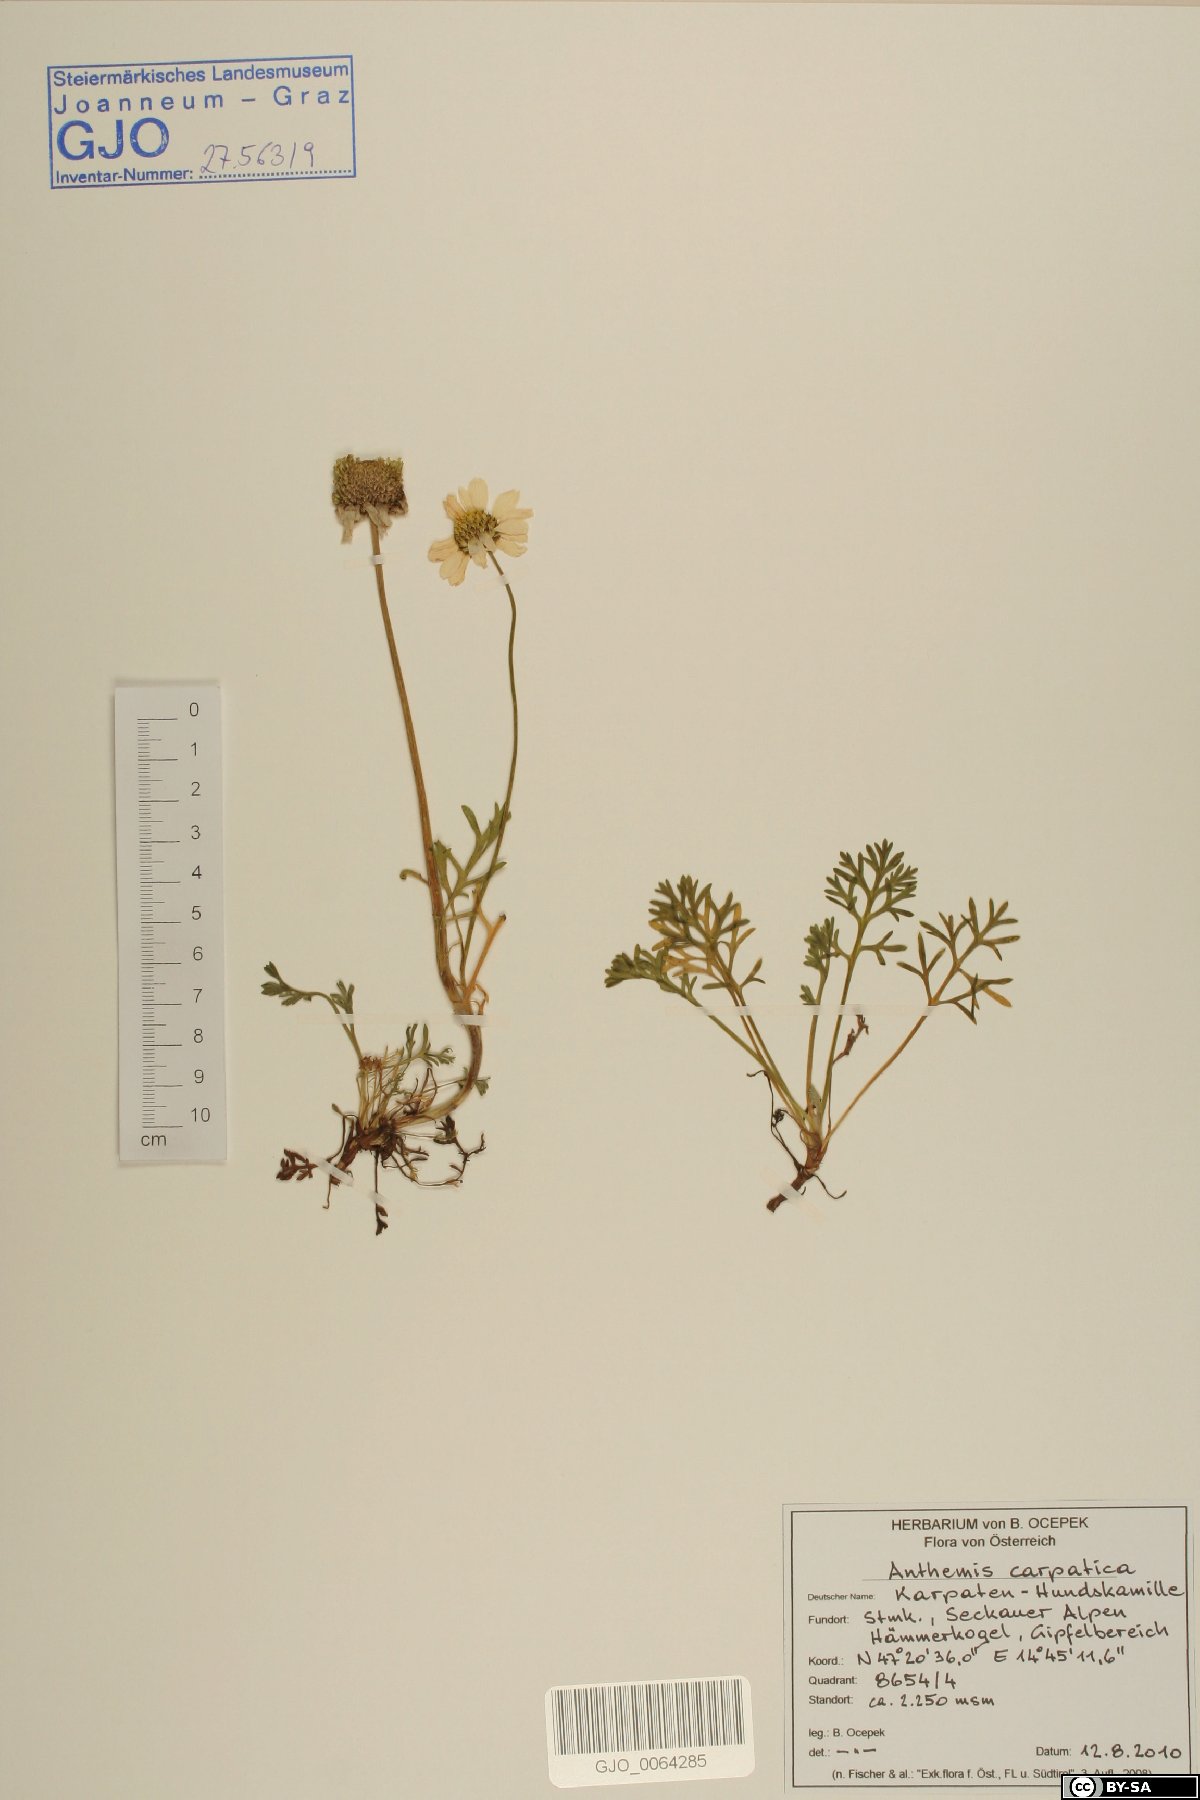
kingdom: Plantae
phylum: Tracheophyta
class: Magnoliopsida
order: Asterales
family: Asteraceae
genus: Anthemis
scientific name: Anthemis cretica
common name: Mountain dog-daisy
